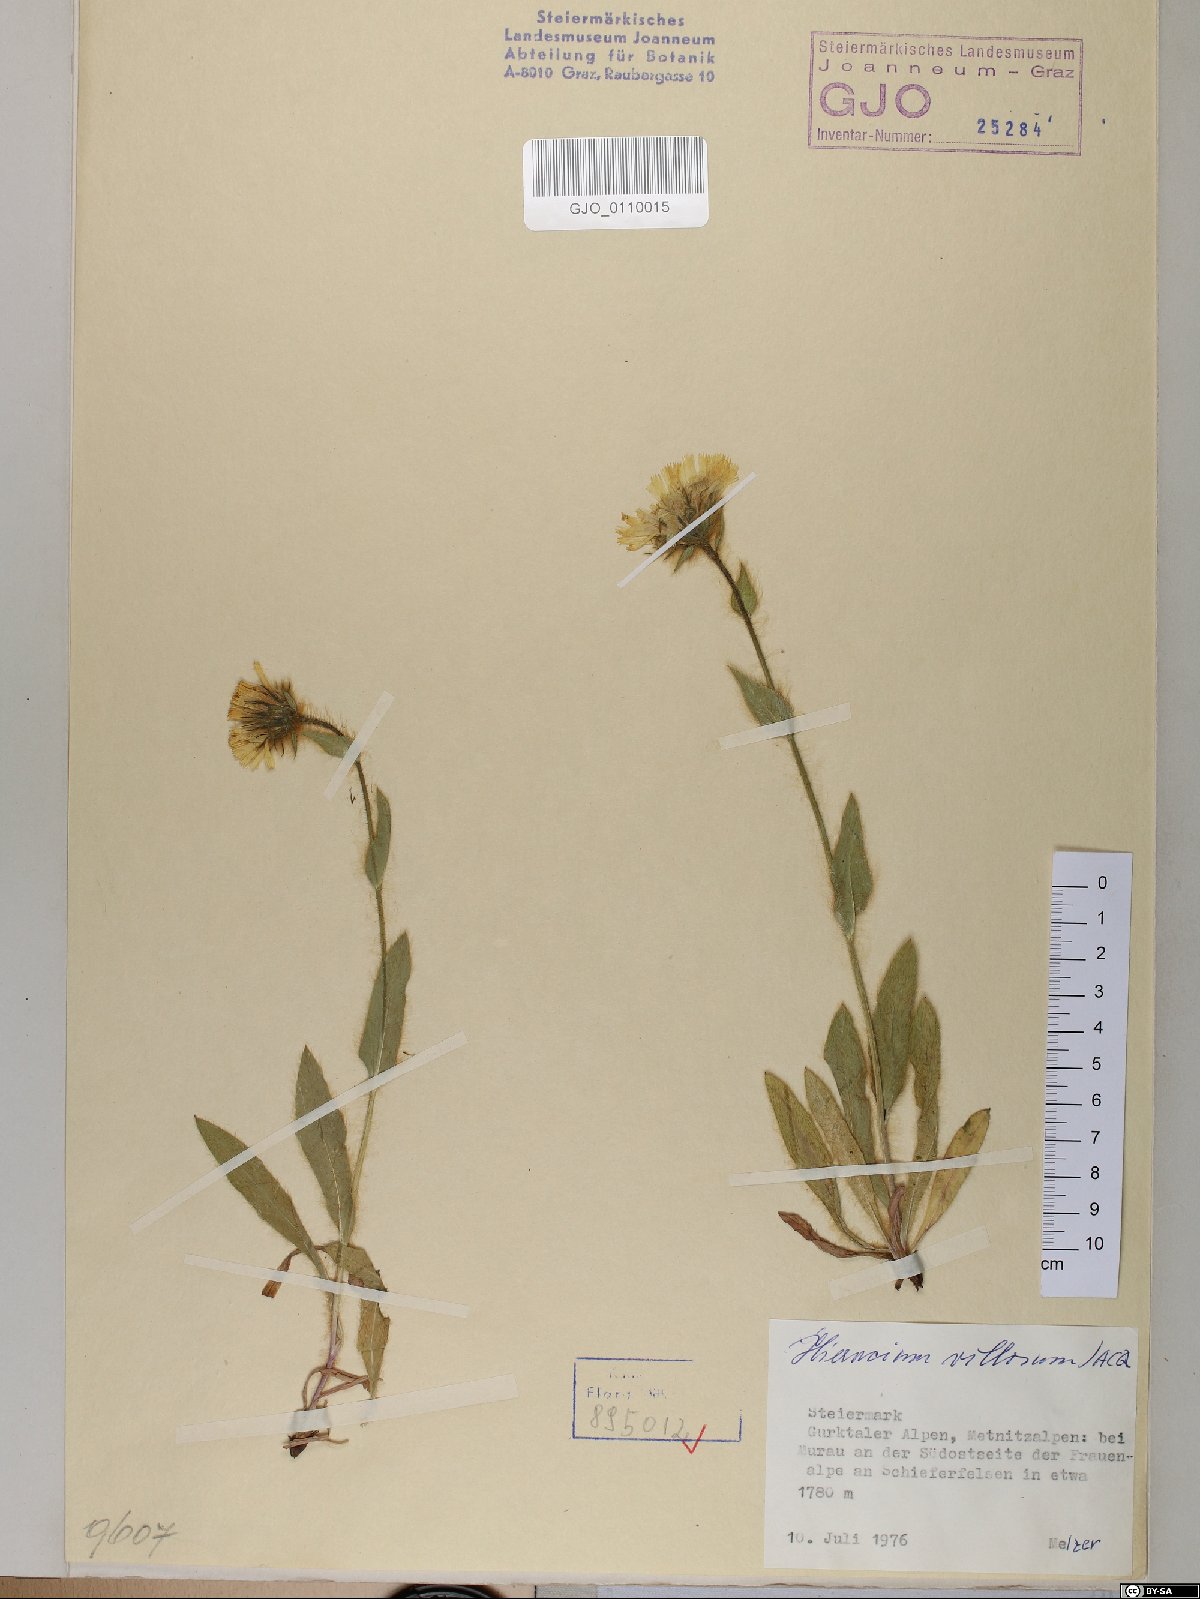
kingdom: Plantae
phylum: Tracheophyta
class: Magnoliopsida
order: Asterales
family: Asteraceae
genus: Hieracium
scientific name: Hieracium villosum
